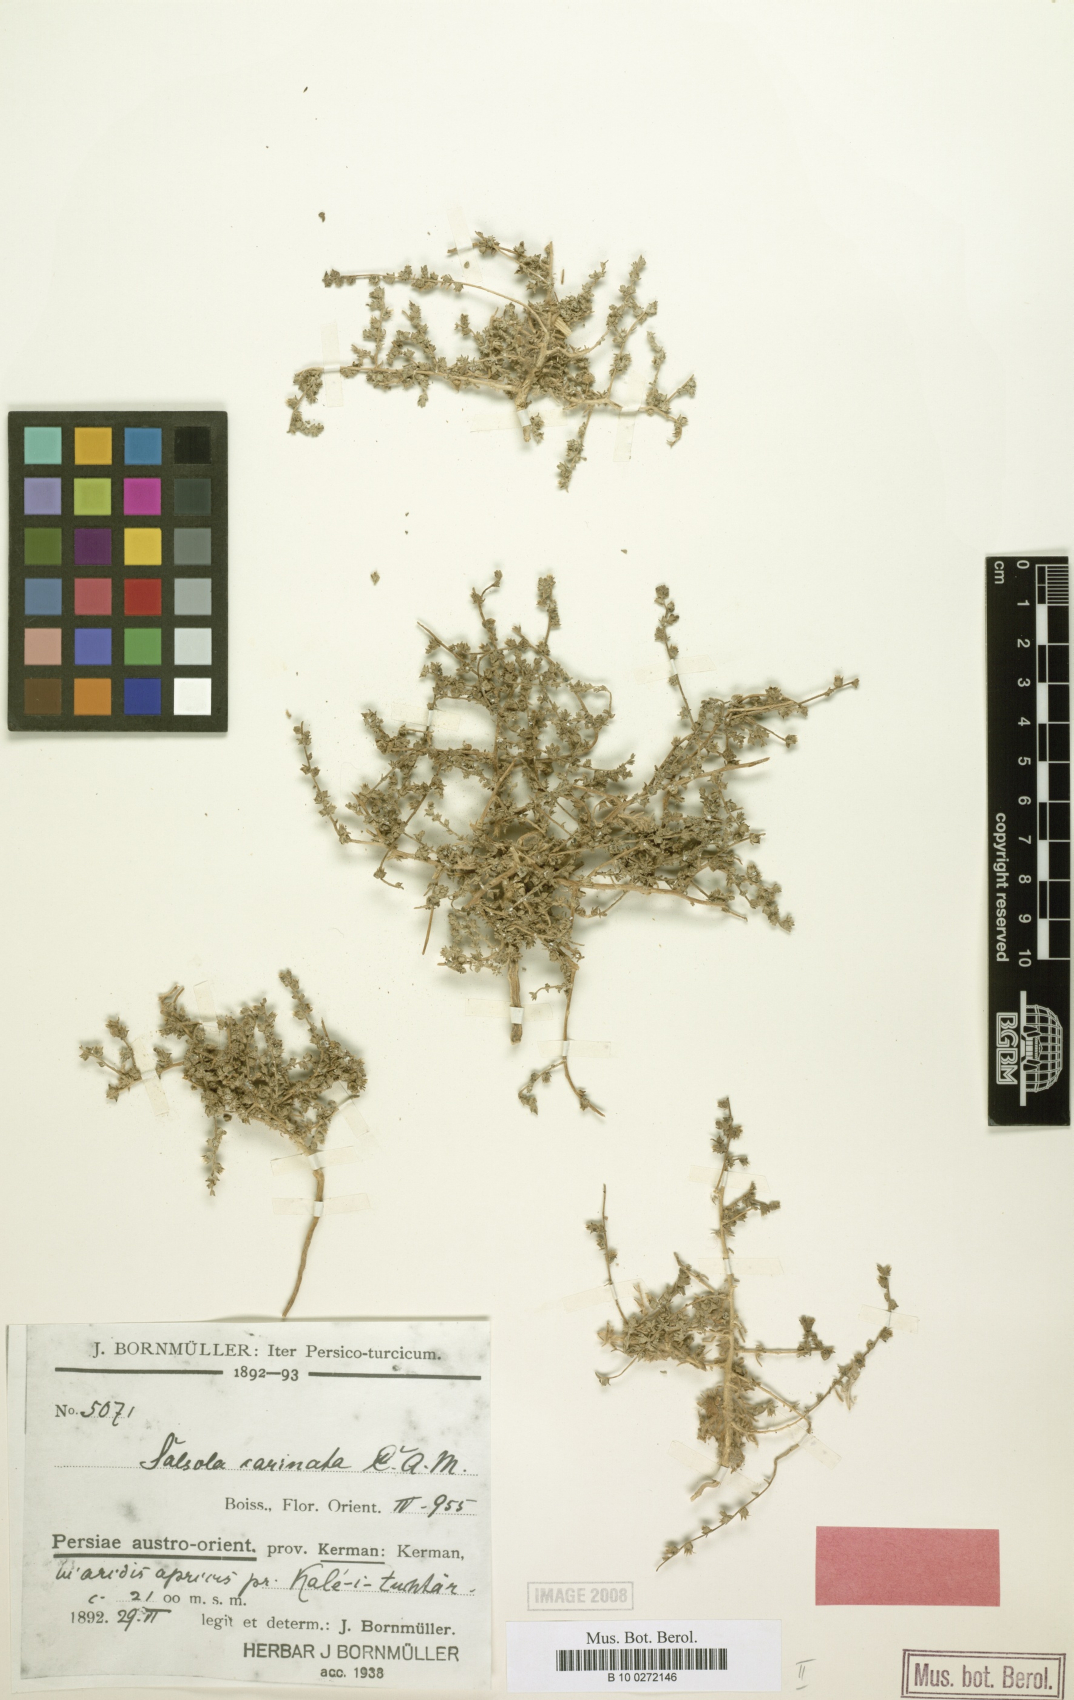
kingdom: Plantae
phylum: Tracheophyta
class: Magnoliopsida
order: Caryophyllales
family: Amaranthaceae
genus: Caroxylon
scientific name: Caroxylon jordanicola
